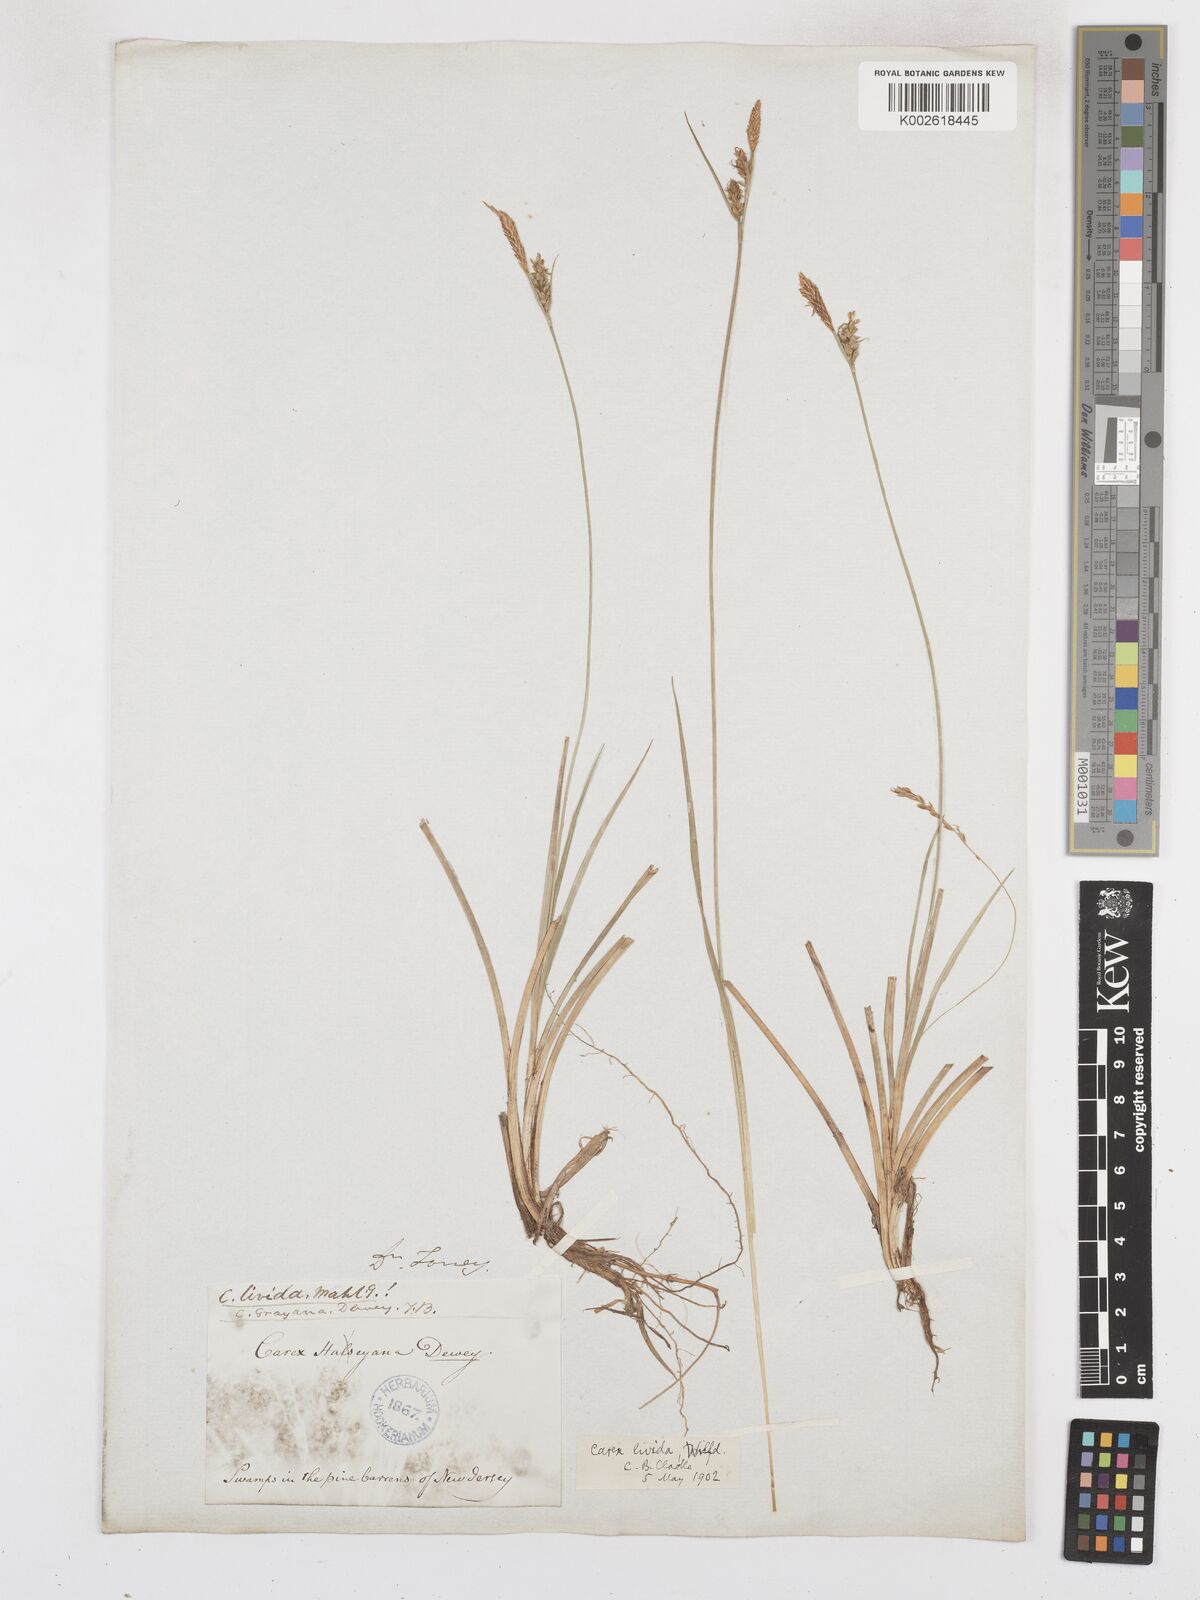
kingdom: Plantae
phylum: Tracheophyta
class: Liliopsida
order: Poales
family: Cyperaceae
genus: Carex
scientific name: Carex livida
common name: Livid sedge
